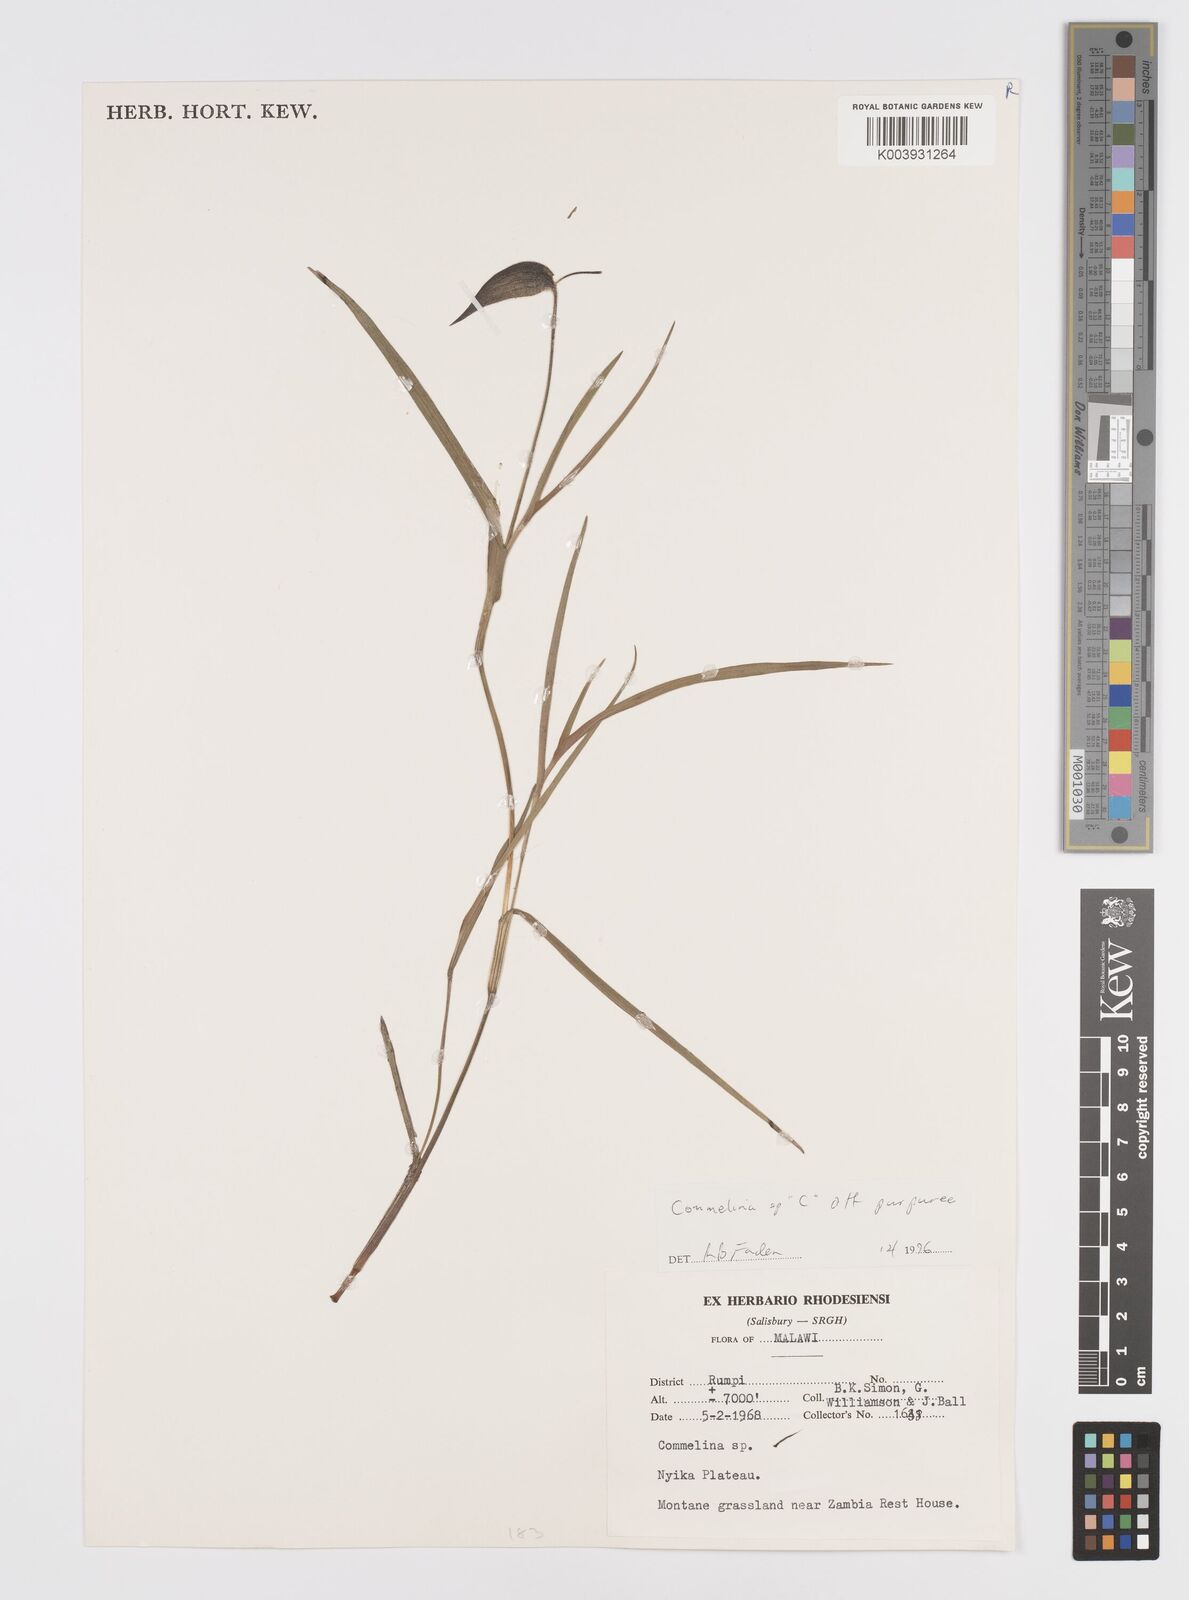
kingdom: Plantae
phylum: Tracheophyta
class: Liliopsida
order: Commelinales
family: Commelinaceae
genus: Commelina
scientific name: Commelina kituloensis
